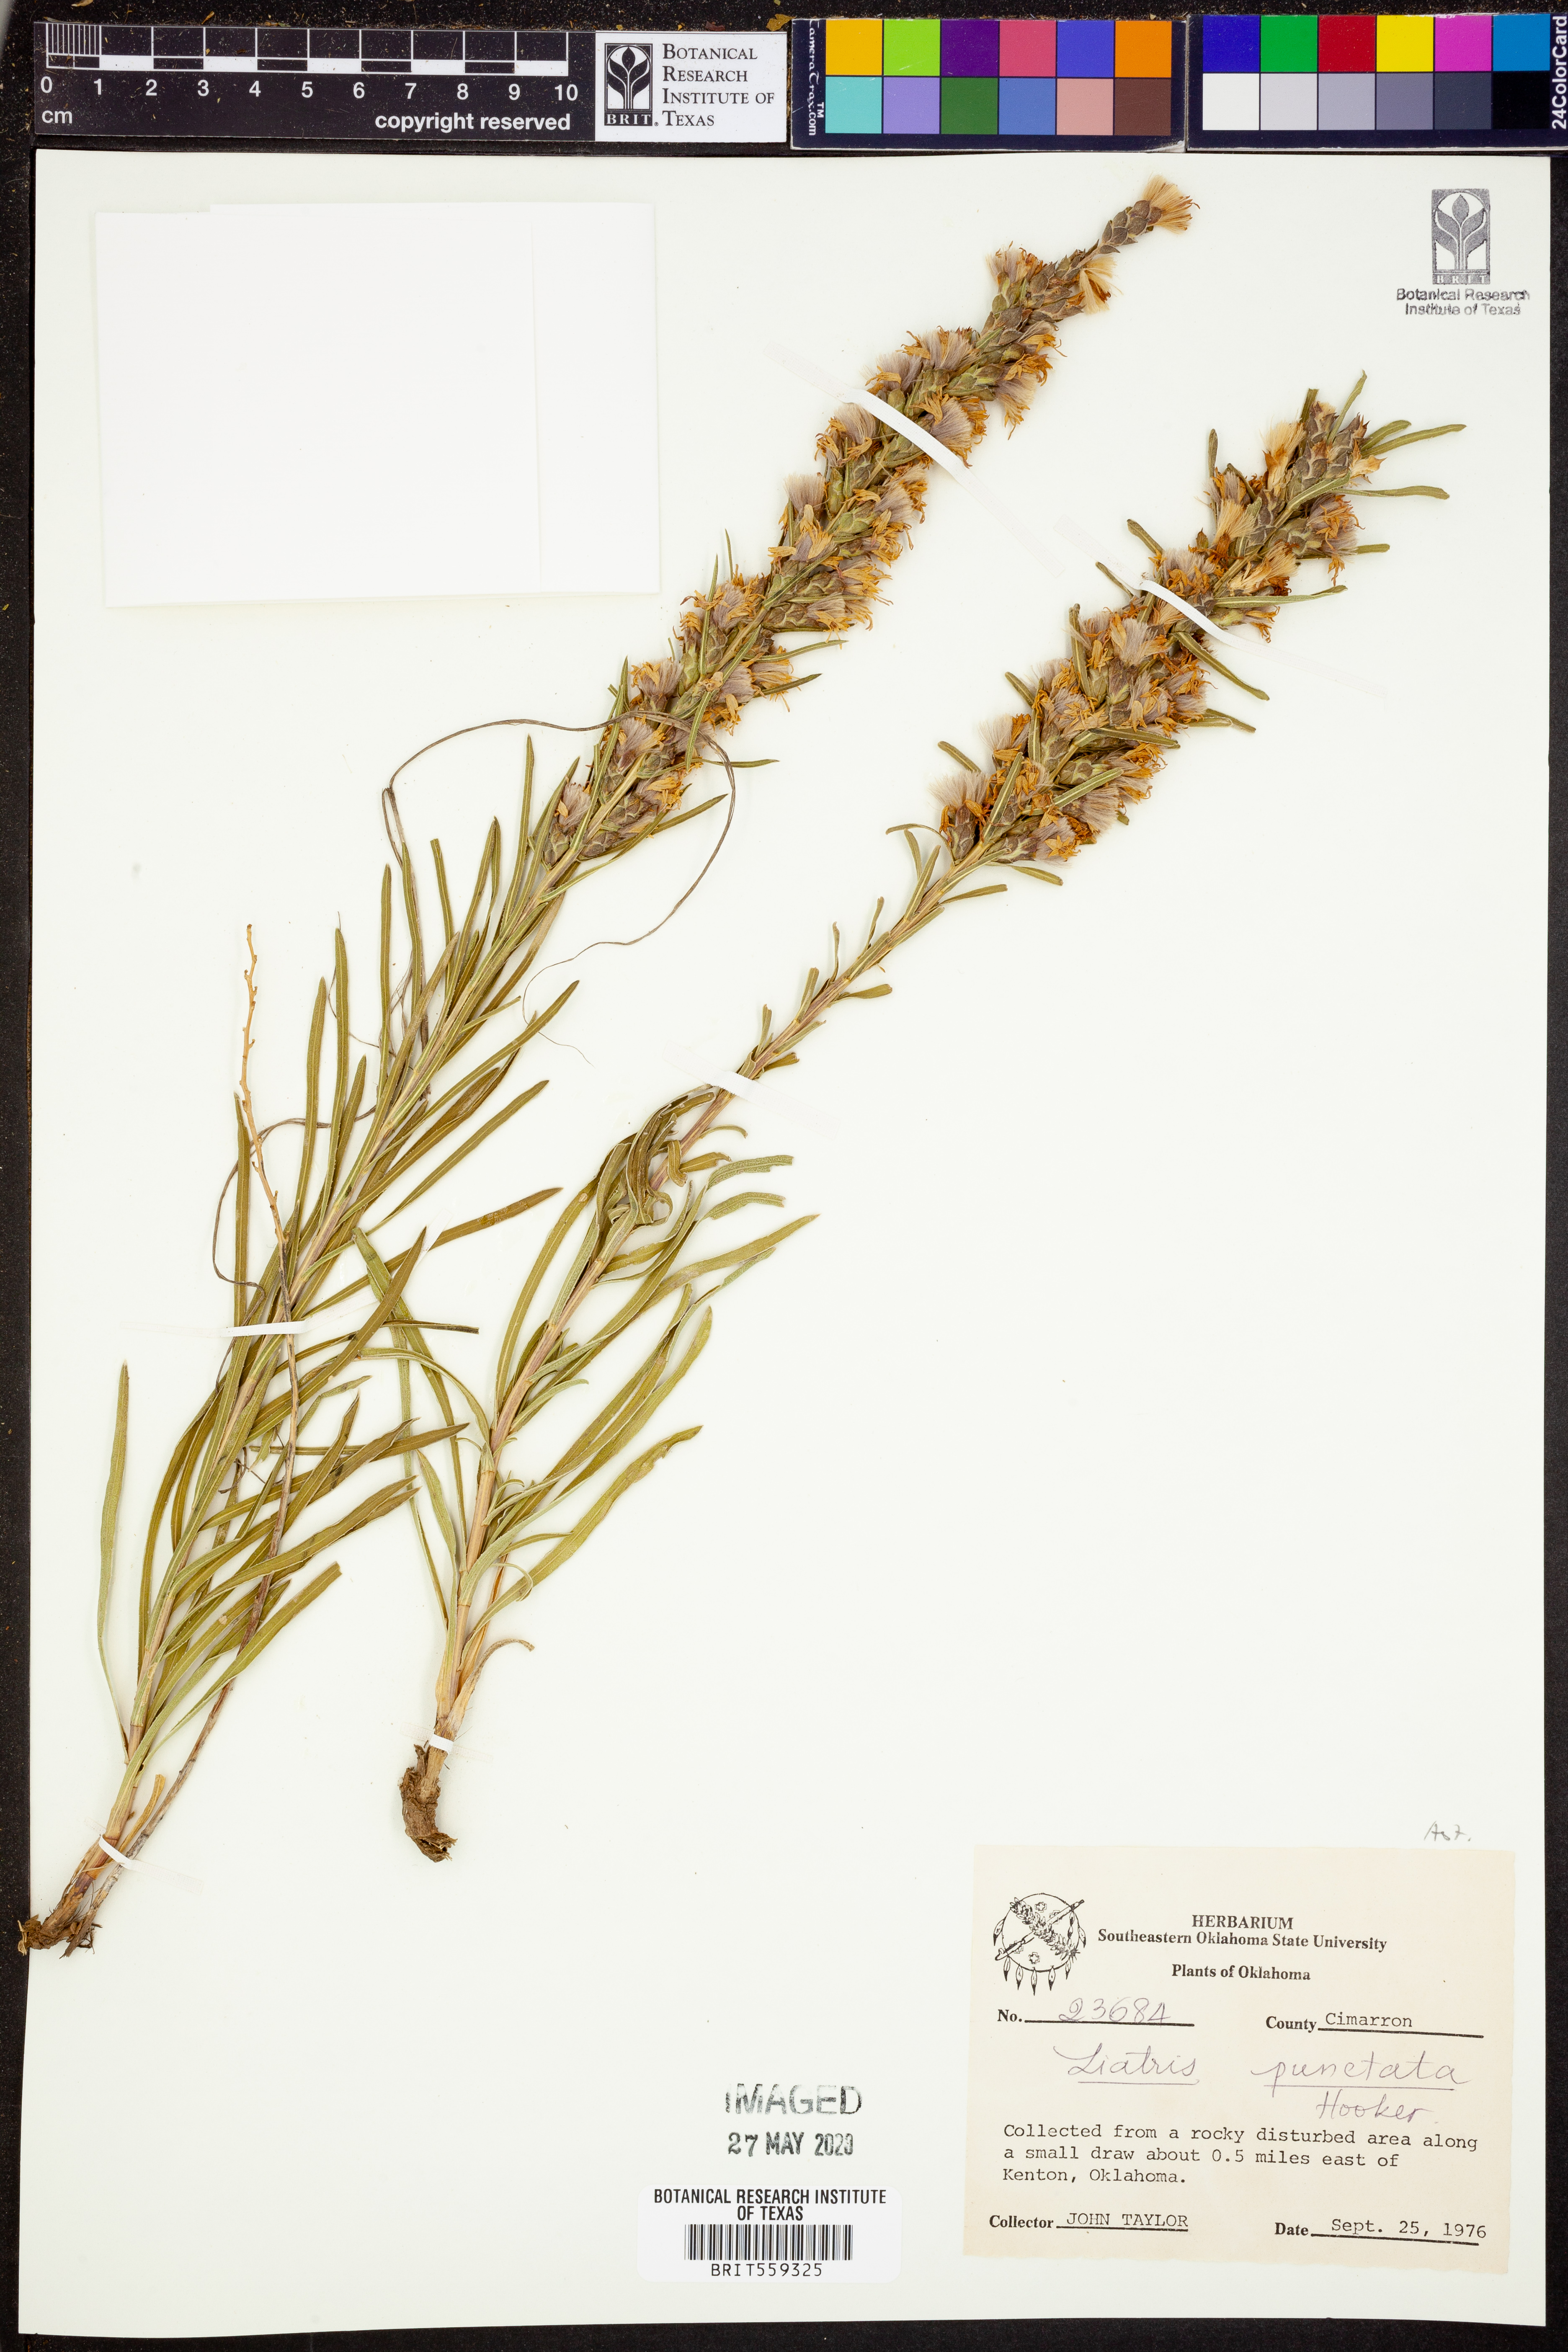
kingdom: Plantae
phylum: Tracheophyta
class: Magnoliopsida
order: Asterales
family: Asteraceae
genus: Liatris
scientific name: Liatris punctata
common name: Dotted gayfeather
